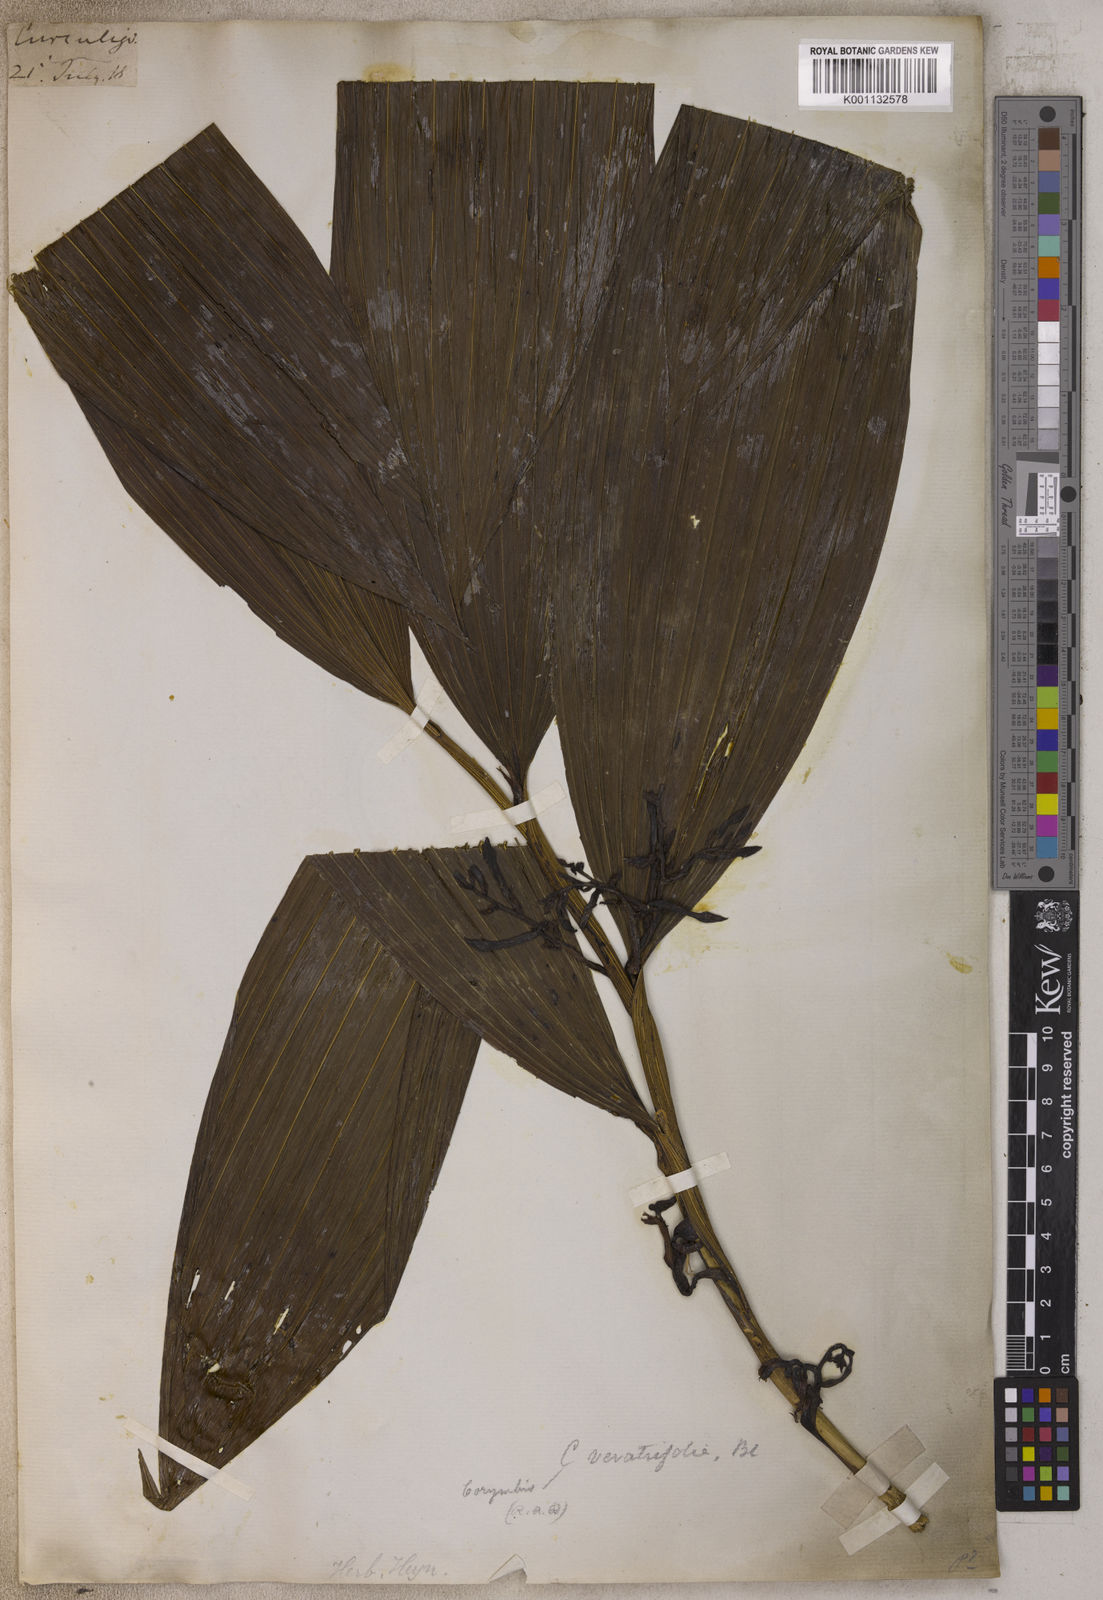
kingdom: Plantae
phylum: Tracheophyta
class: Liliopsida
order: Asparagales
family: Orchidaceae
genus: Corymborkis
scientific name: Corymborkis veratrifolia
